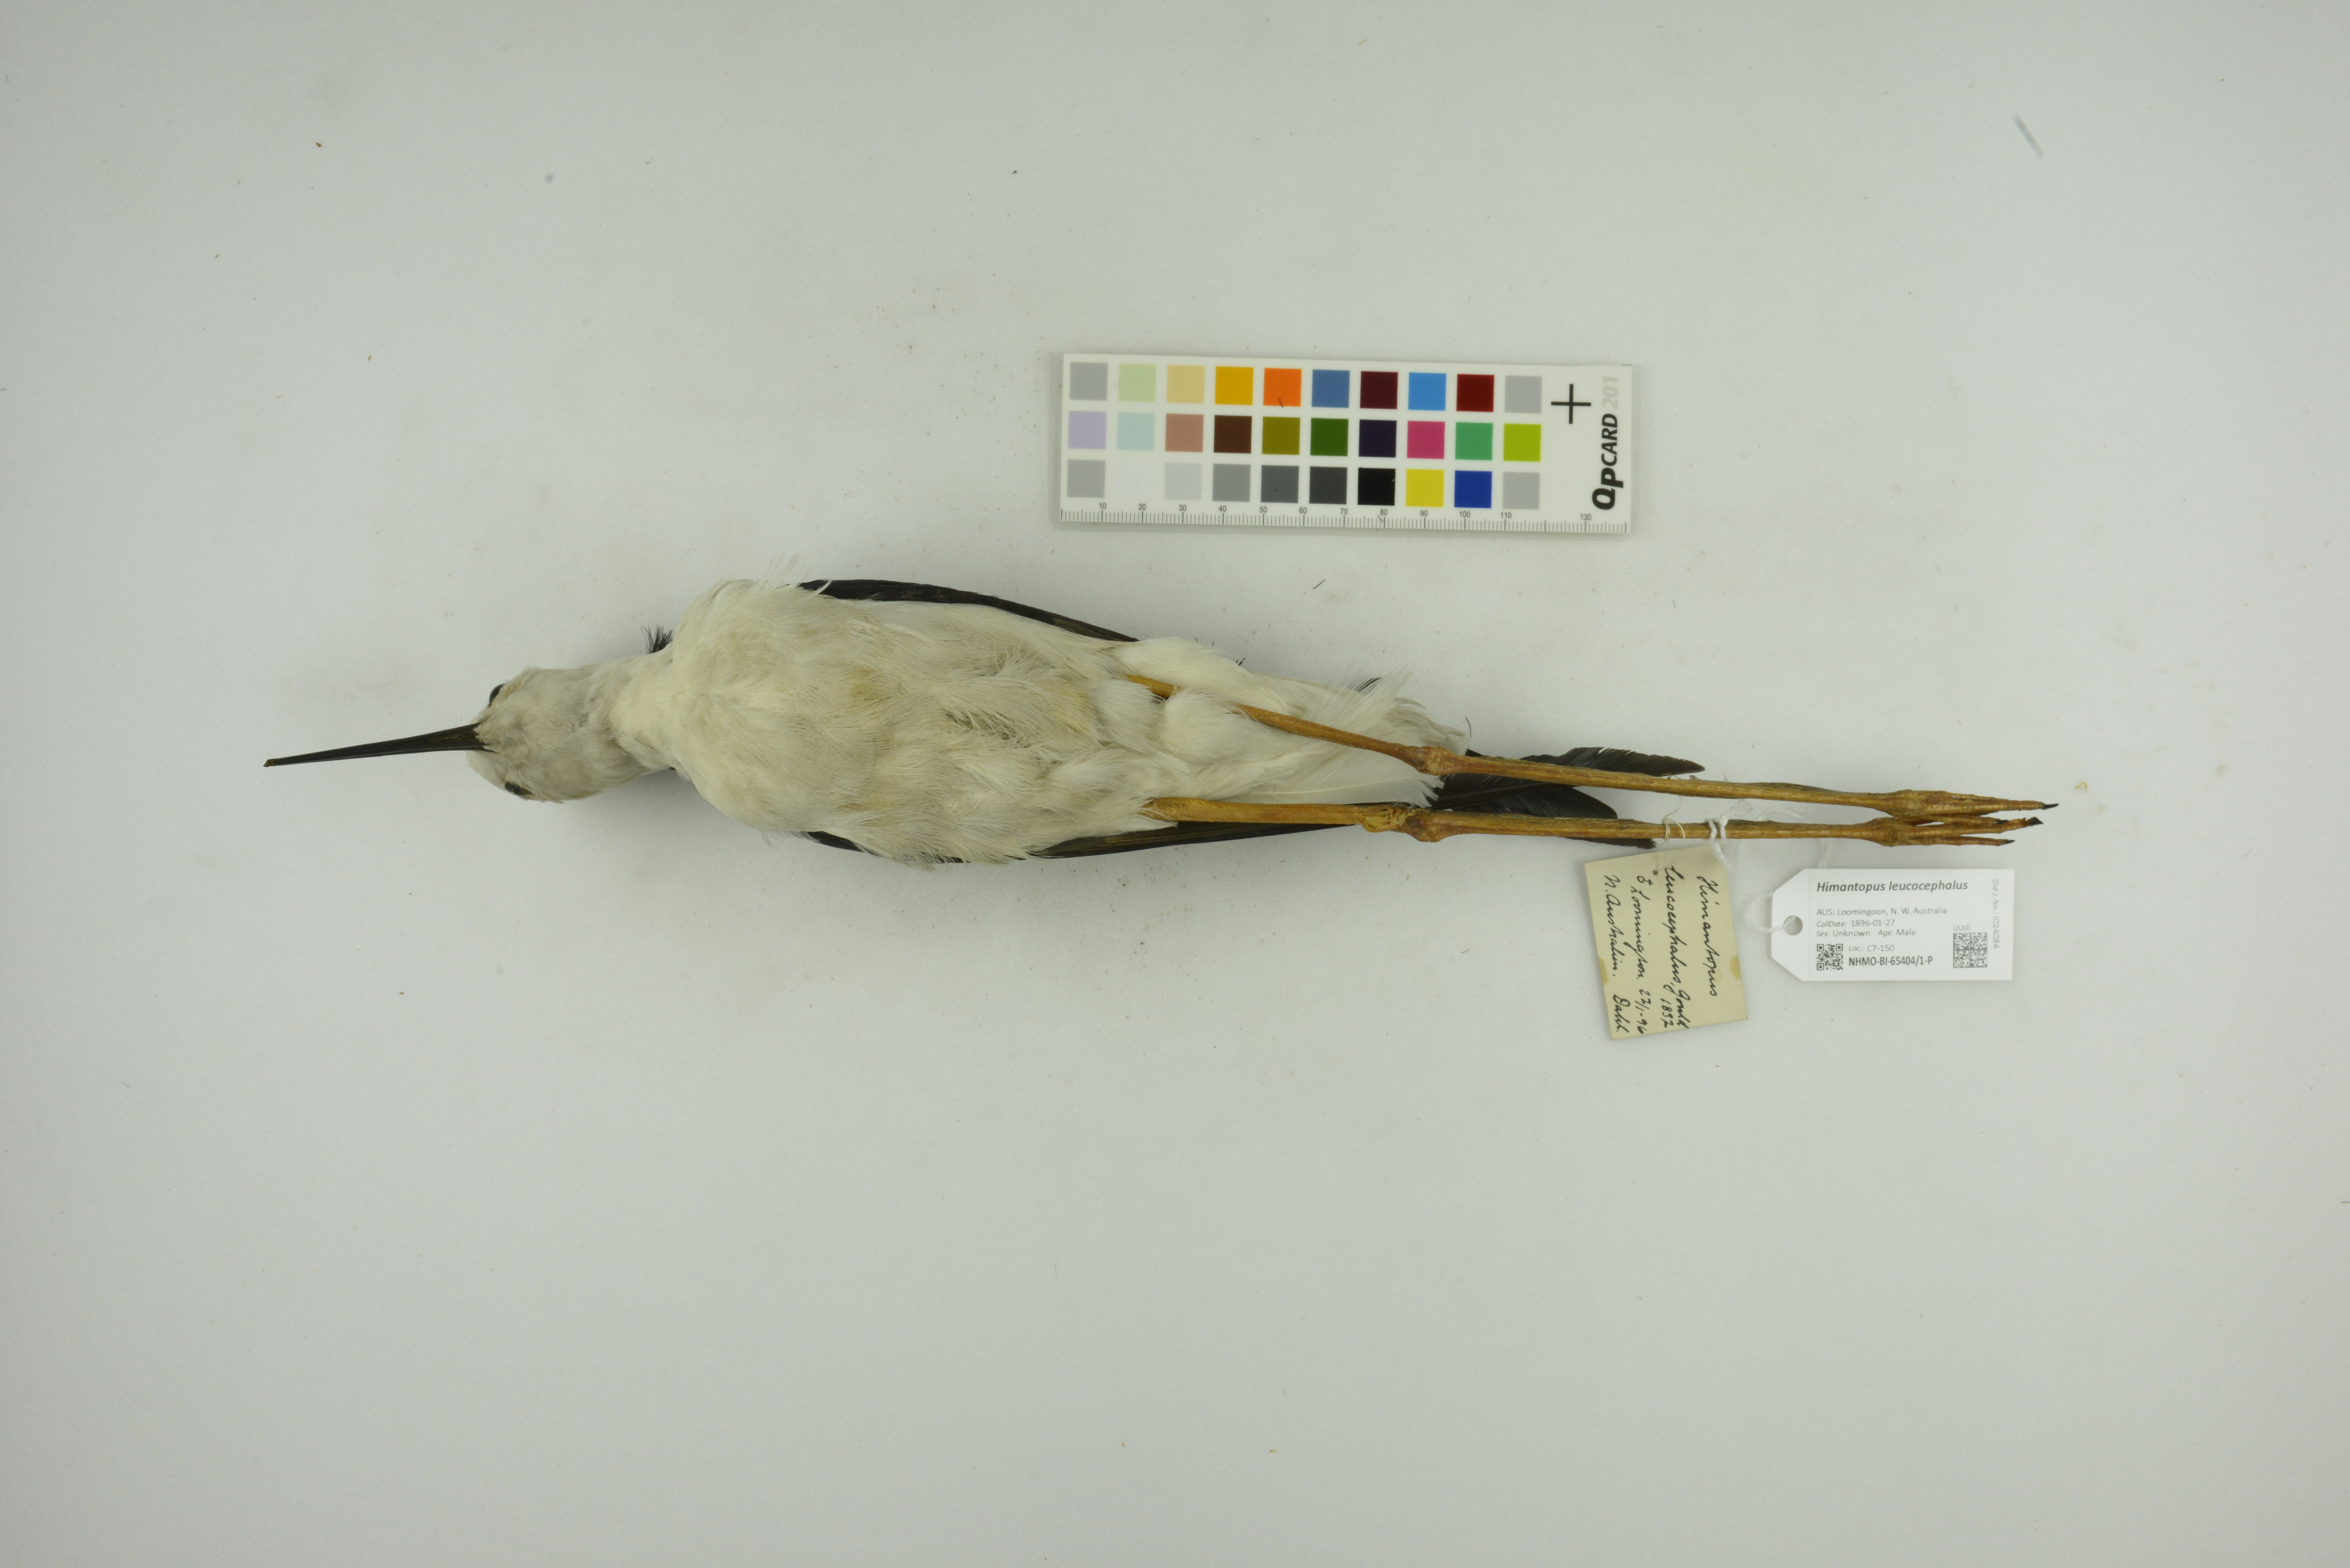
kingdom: Animalia
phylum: Chordata
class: Aves
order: Charadriiformes
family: Recurvirostridae
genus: Himantopus
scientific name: Himantopus leucocephalus
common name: White-headed stilt
